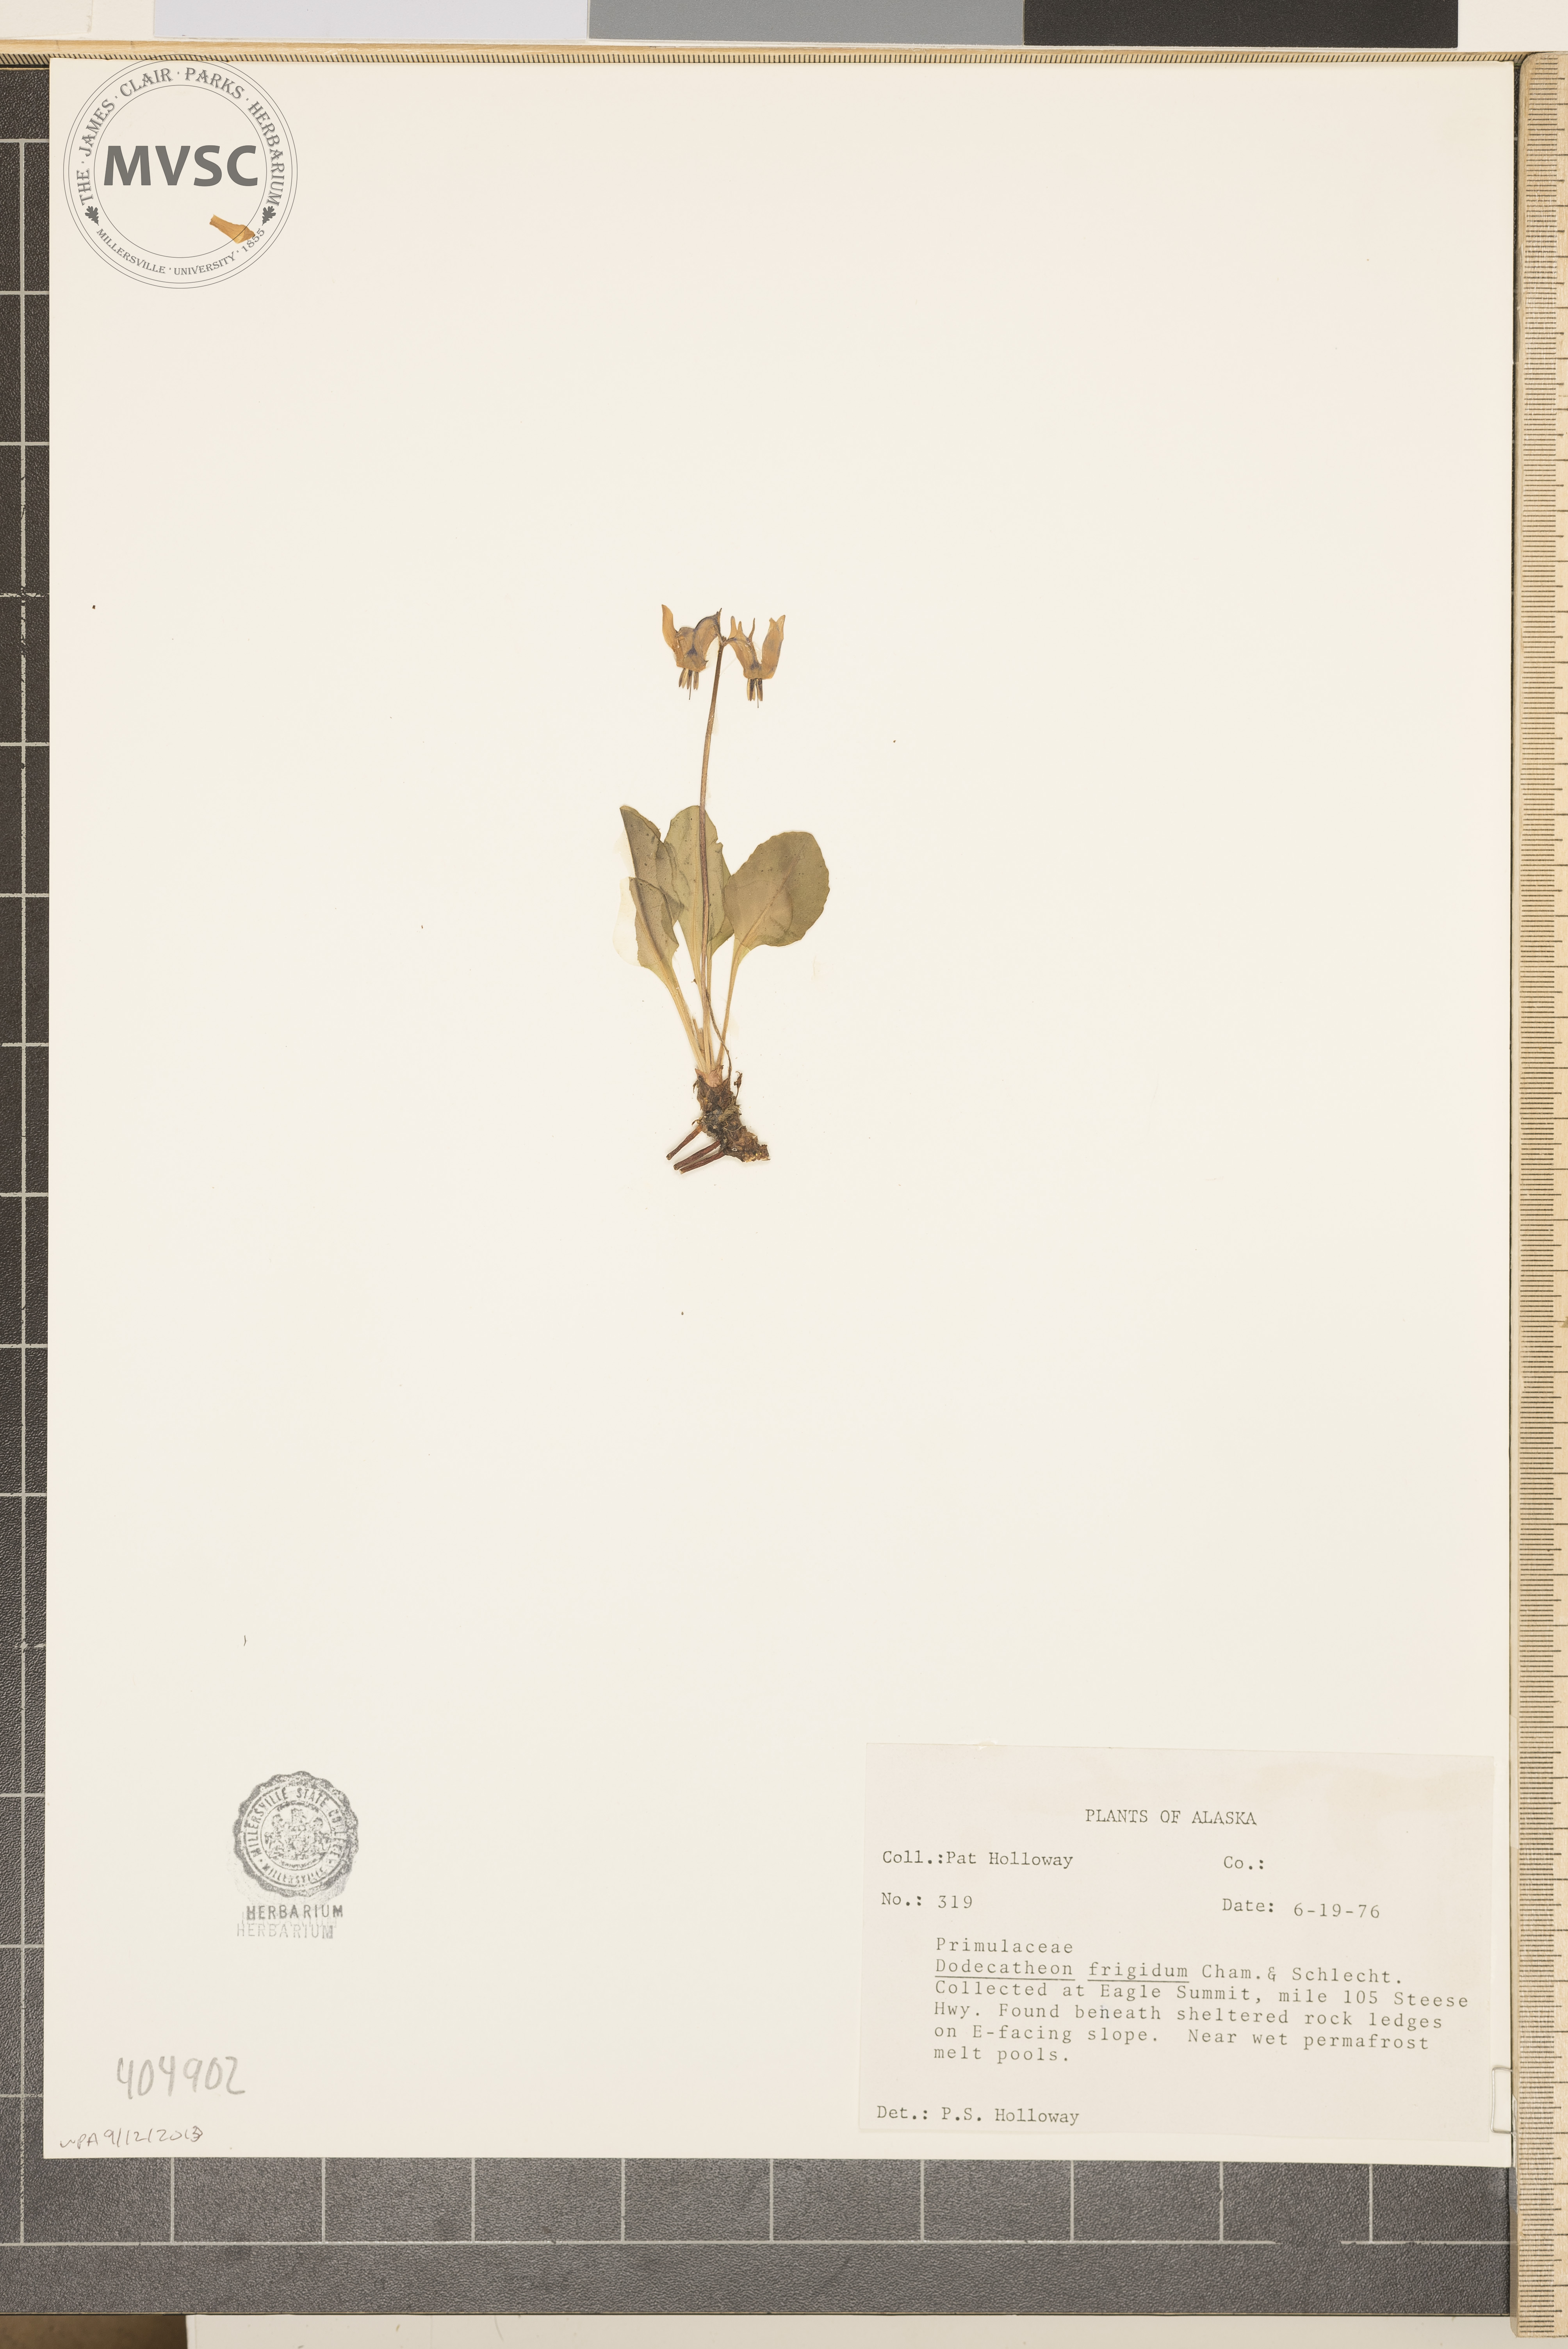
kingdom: Plantae
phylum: Tracheophyta
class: Magnoliopsida
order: Ericales
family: Primulaceae
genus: Dodecatheon
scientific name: Dodecatheon frigidum
